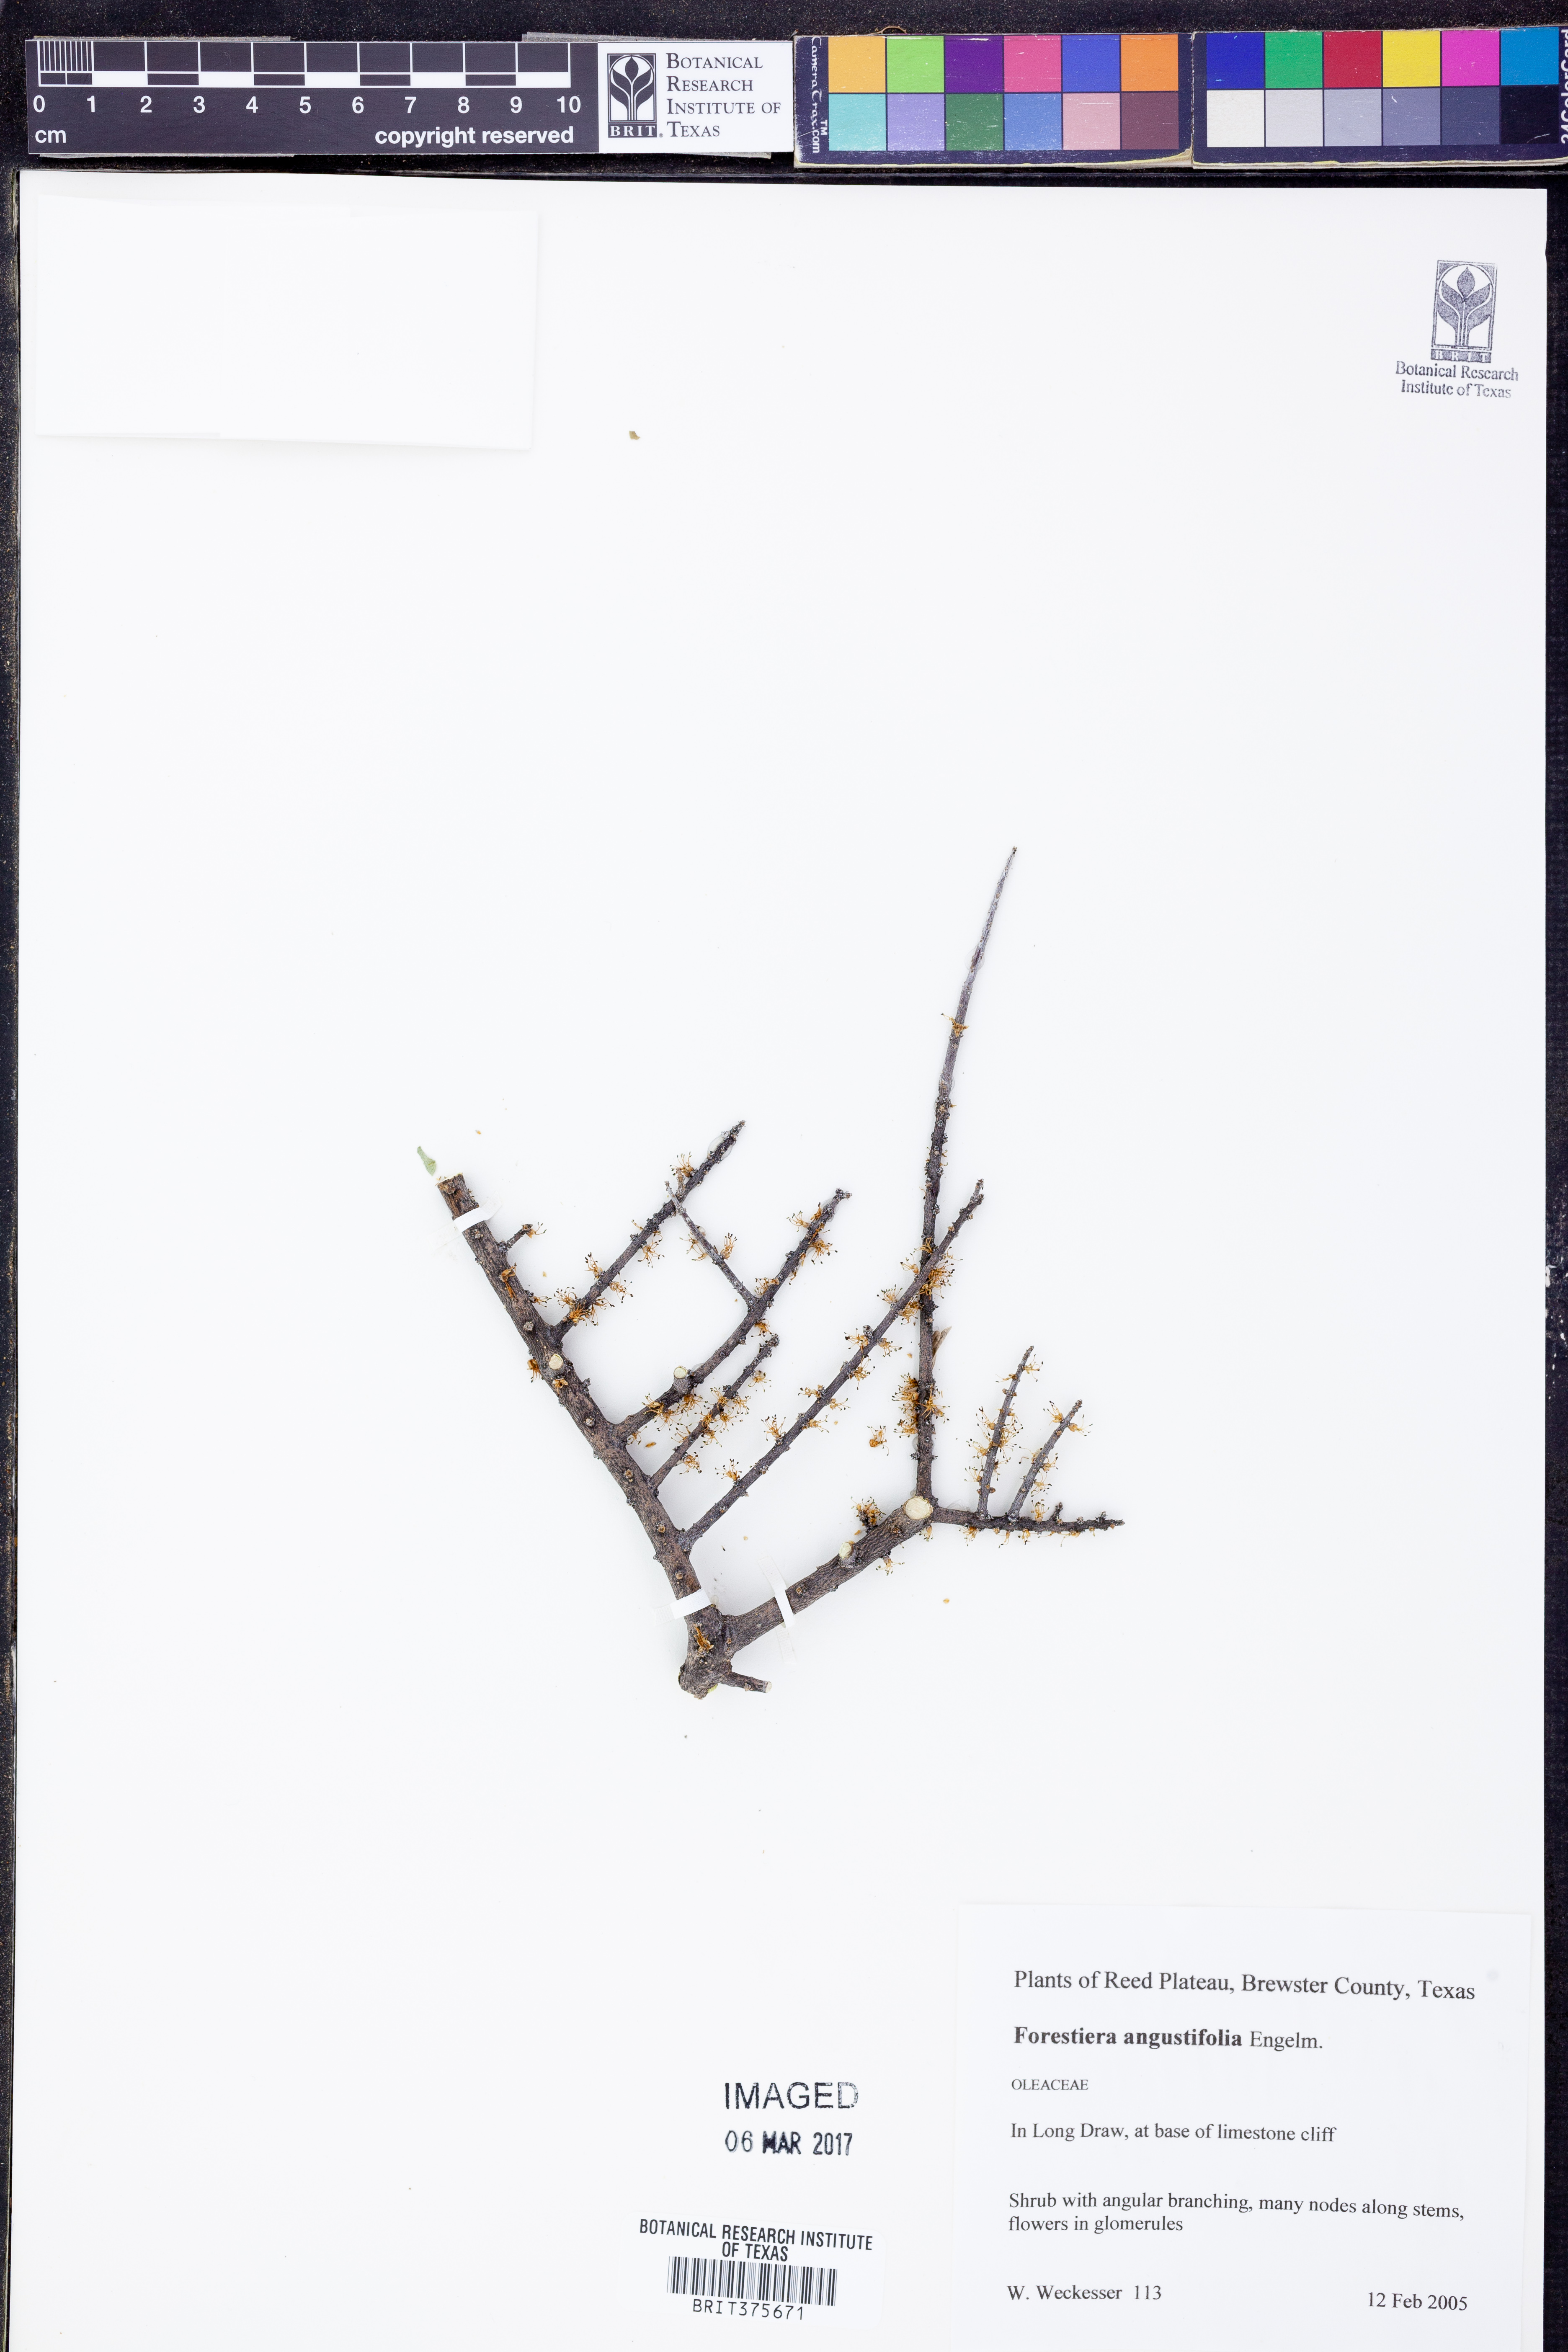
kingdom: Plantae
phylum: Tracheophyta
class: Magnoliopsida
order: Lamiales
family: Oleaceae
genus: Forestiera
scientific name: Forestiera angustifolia
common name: Elbowbush
